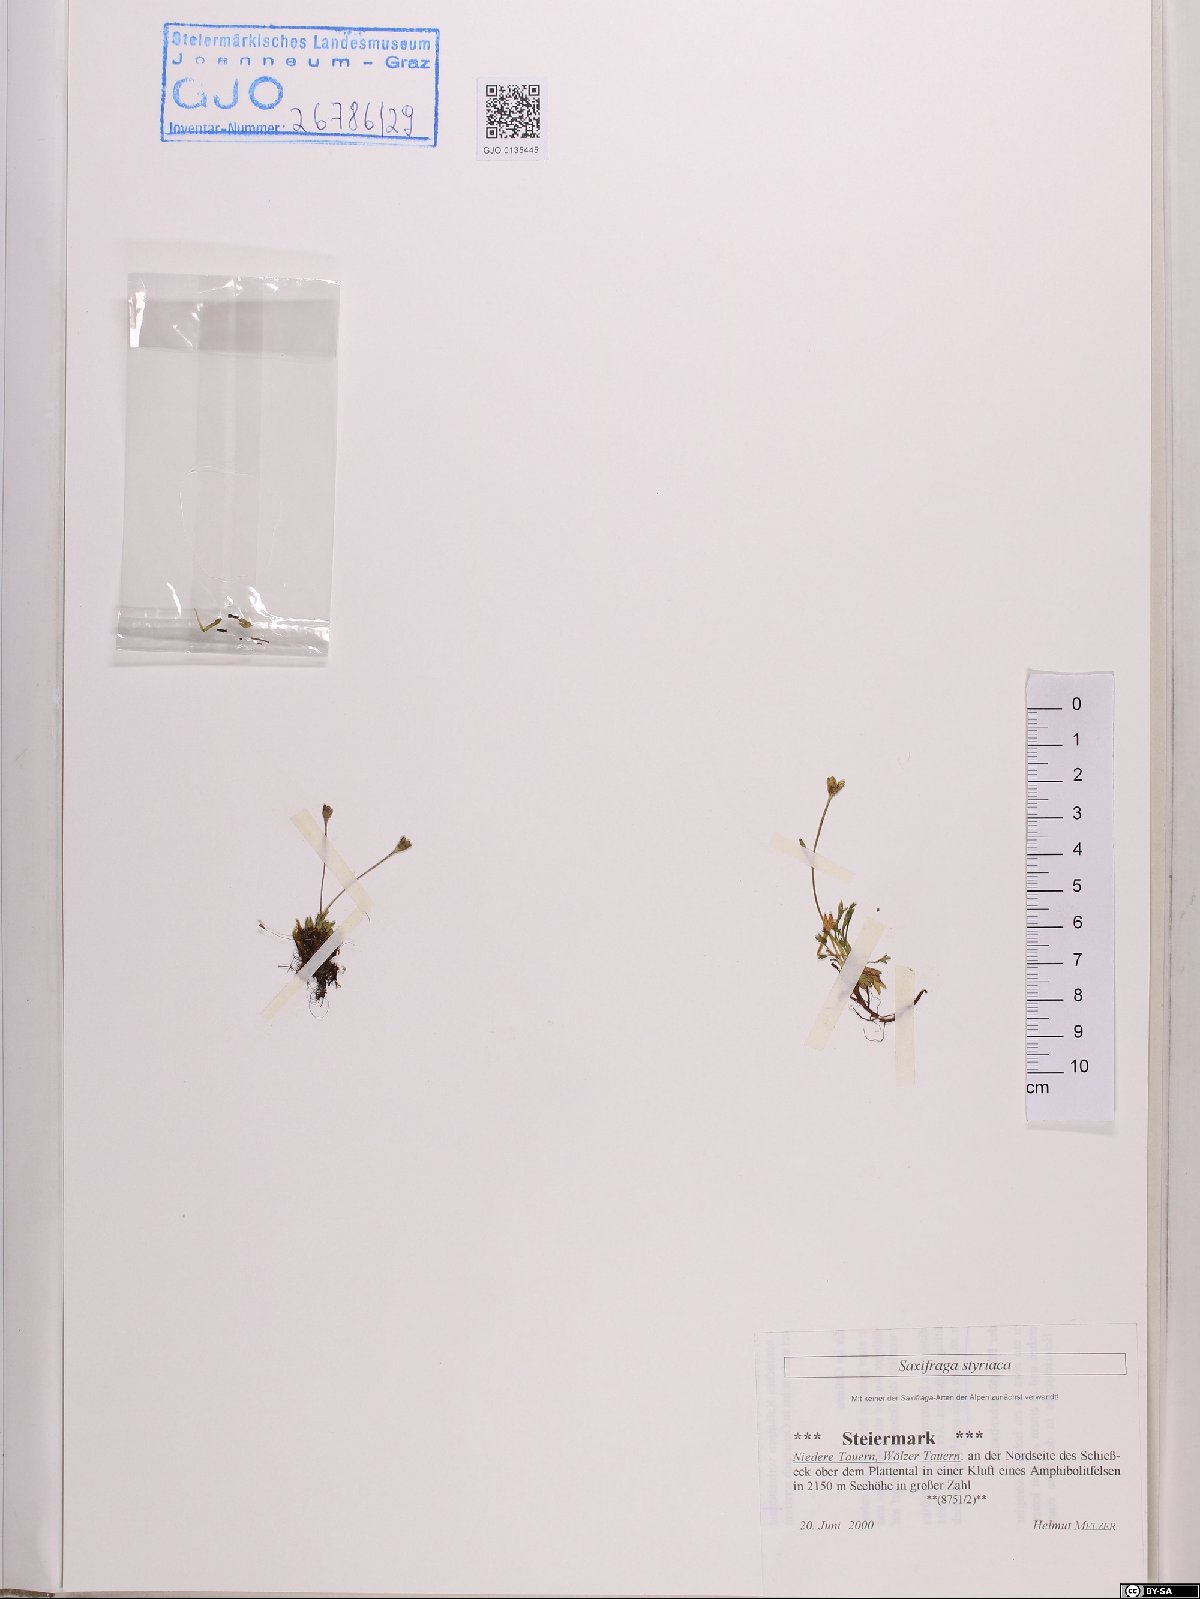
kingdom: Plantae
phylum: Tracheophyta
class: Magnoliopsida
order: Saxifragales
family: Saxifragaceae
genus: Saxifraga
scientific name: Saxifraga styriaca
